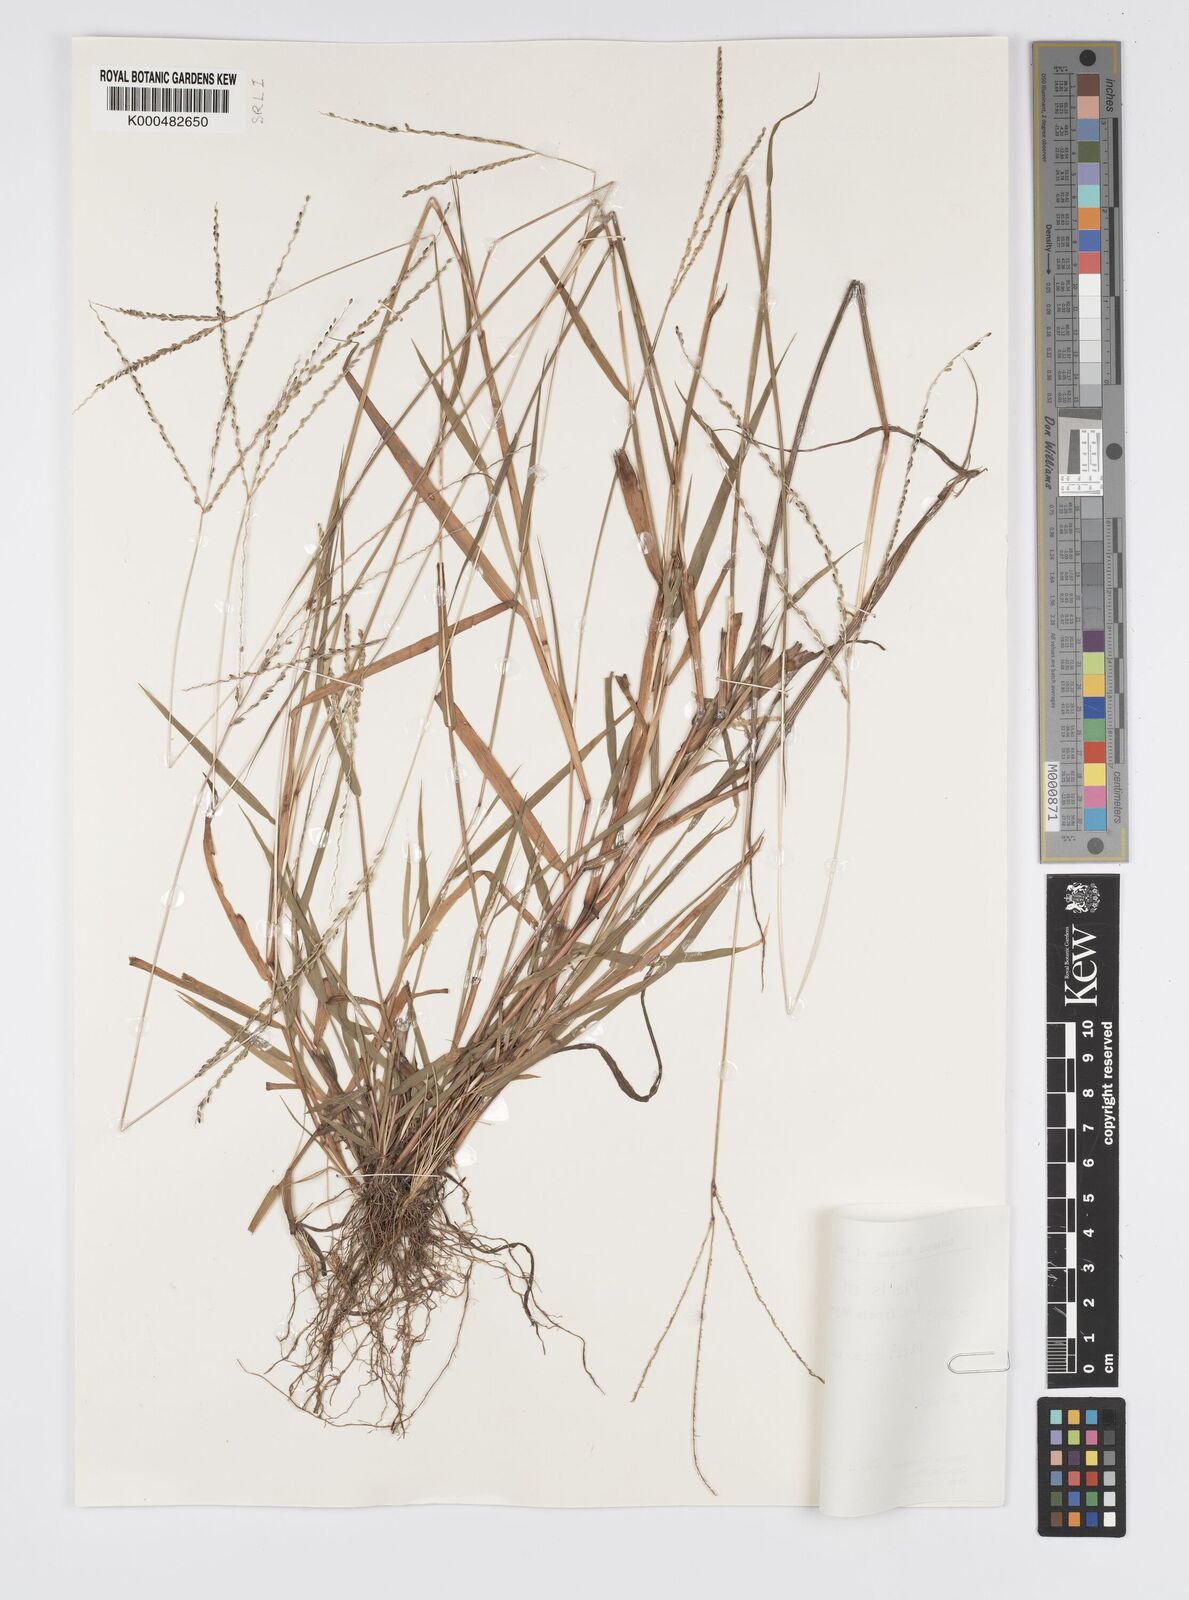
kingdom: Plantae
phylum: Tracheophyta
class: Liliopsida
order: Poales
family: Poaceae
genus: Digitaria
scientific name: Digitaria balansae
